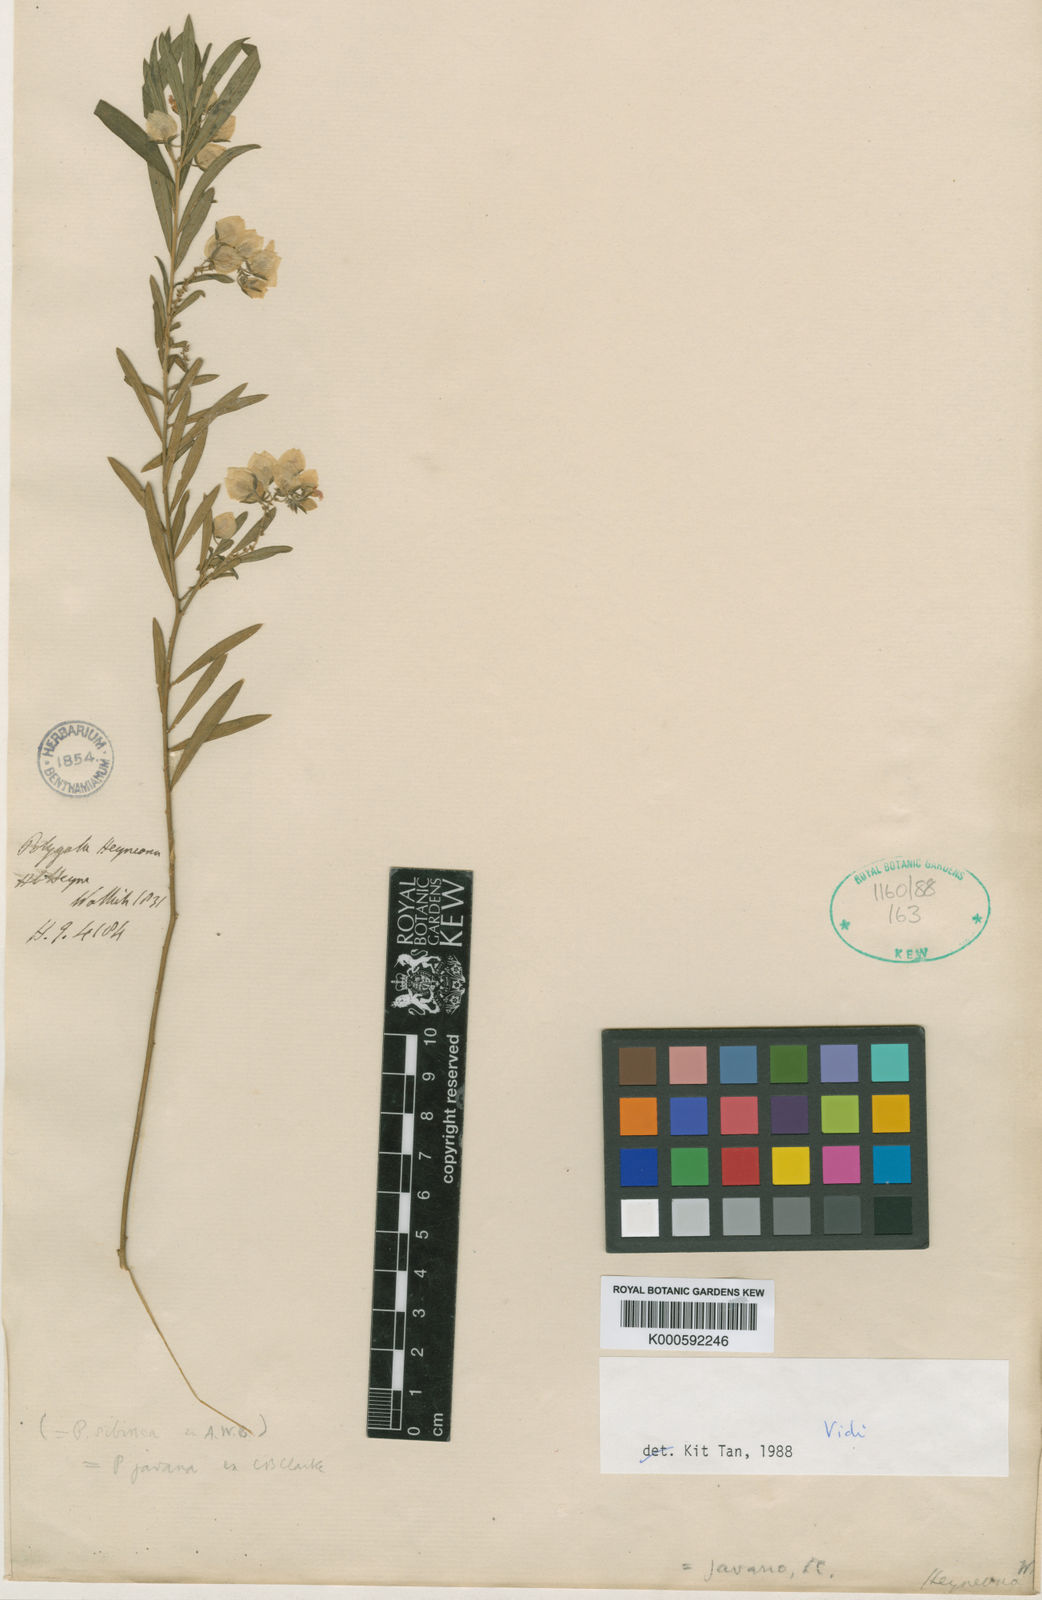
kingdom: Plantae
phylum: Tracheophyta
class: Magnoliopsida
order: Fabales
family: Polygalaceae
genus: Polygala
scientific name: Polygala sibirica
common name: Siberian polygala
